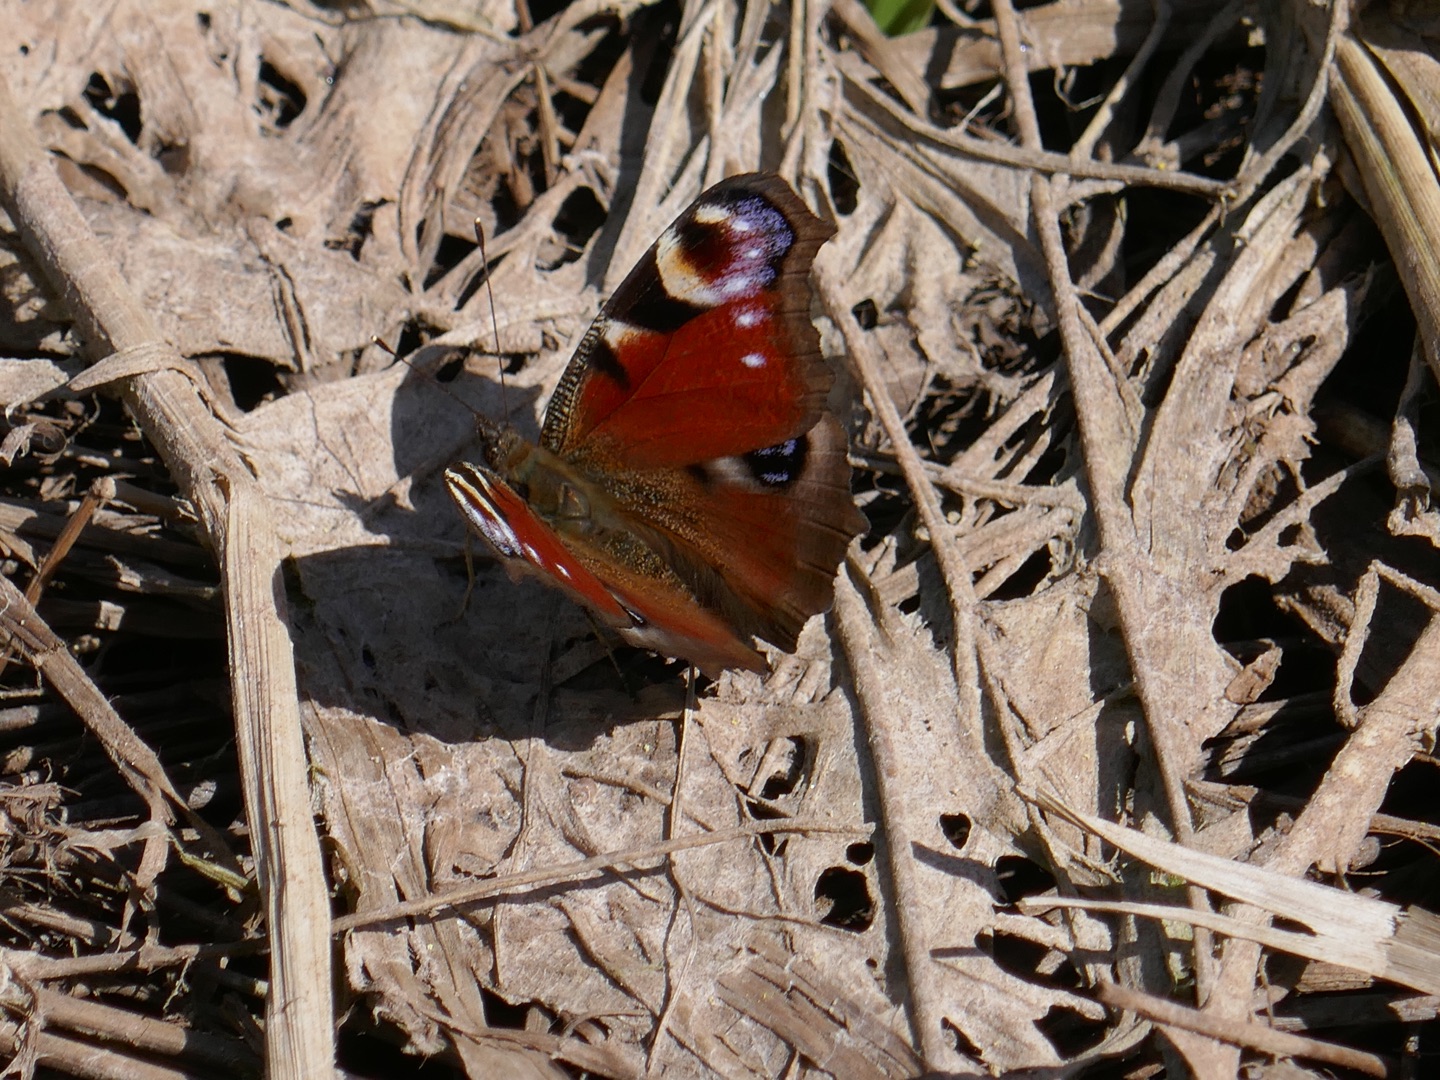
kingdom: Animalia
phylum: Arthropoda
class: Insecta
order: Lepidoptera
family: Nymphalidae
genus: Aglais
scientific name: Aglais io
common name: Dagpåfugleøje
